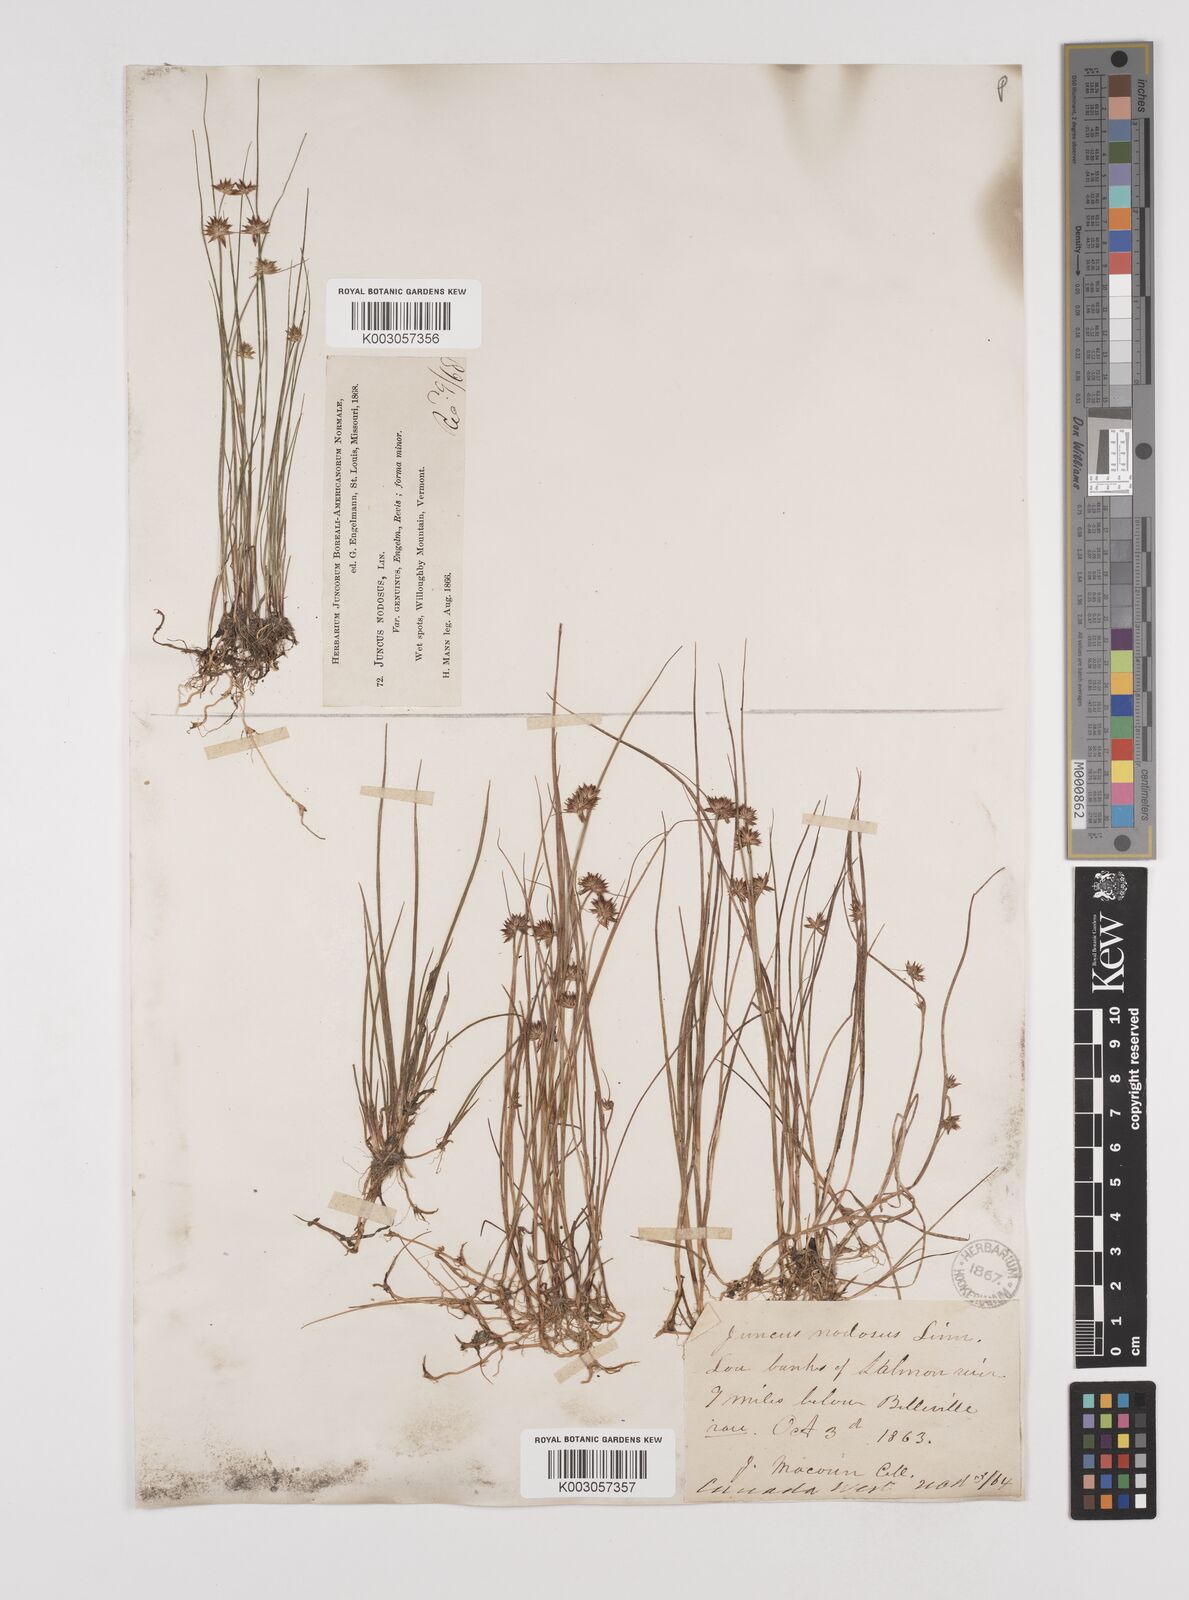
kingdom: Plantae
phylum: Tracheophyta
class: Liliopsida
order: Poales
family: Juncaceae
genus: Juncus
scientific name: Juncus nodosus
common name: Knotted rush
